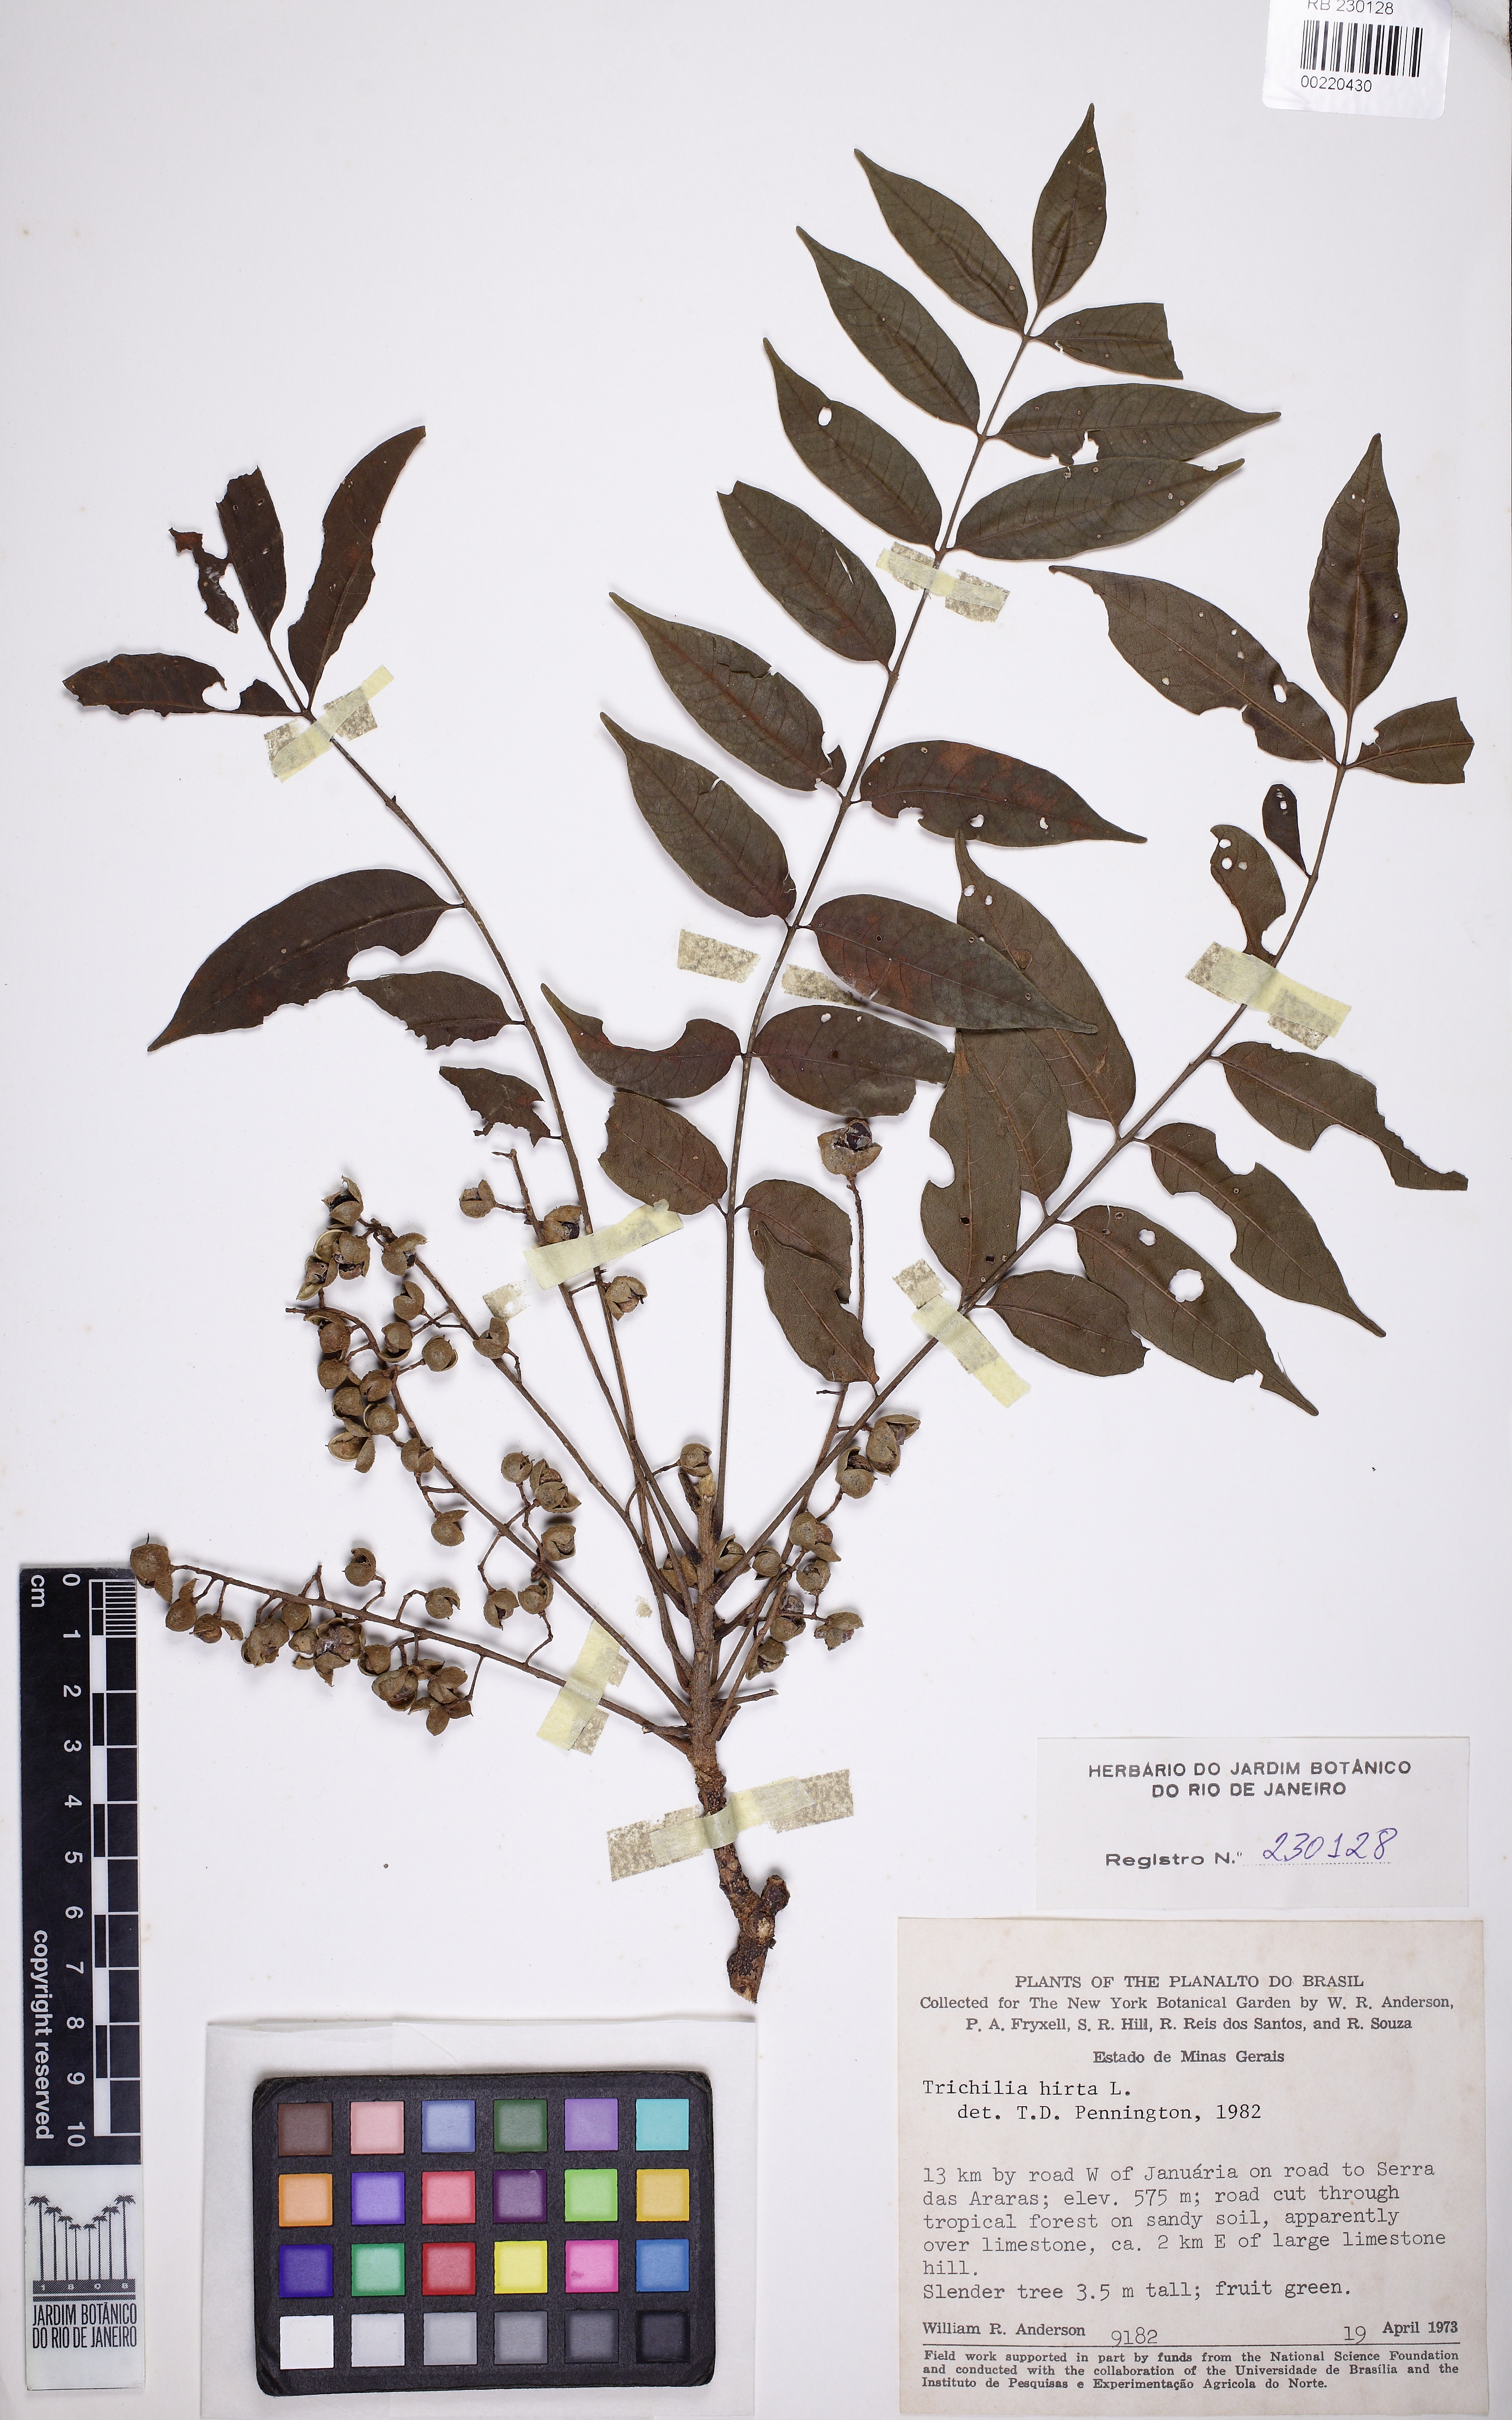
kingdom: Plantae
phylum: Tracheophyta
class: Magnoliopsida
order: Sapindales
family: Meliaceae
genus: Trichilia
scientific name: Trichilia hirta
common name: Red-cedar
